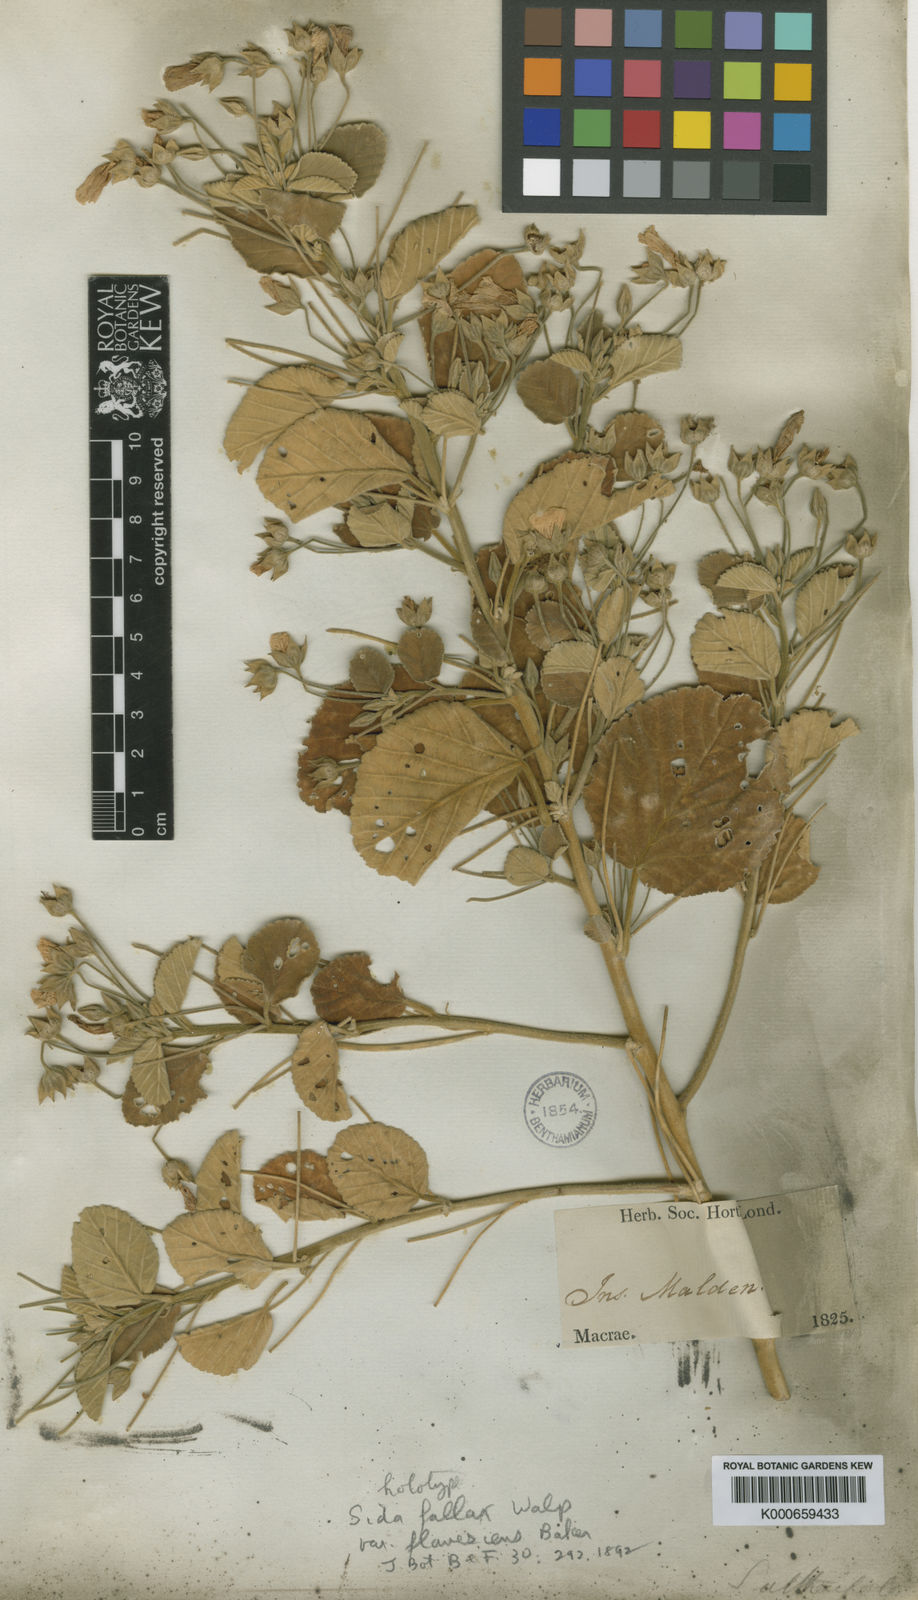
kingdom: Plantae
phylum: Tracheophyta
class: Magnoliopsida
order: Malvales
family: Malvaceae
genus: Sida
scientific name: Sida fallax
